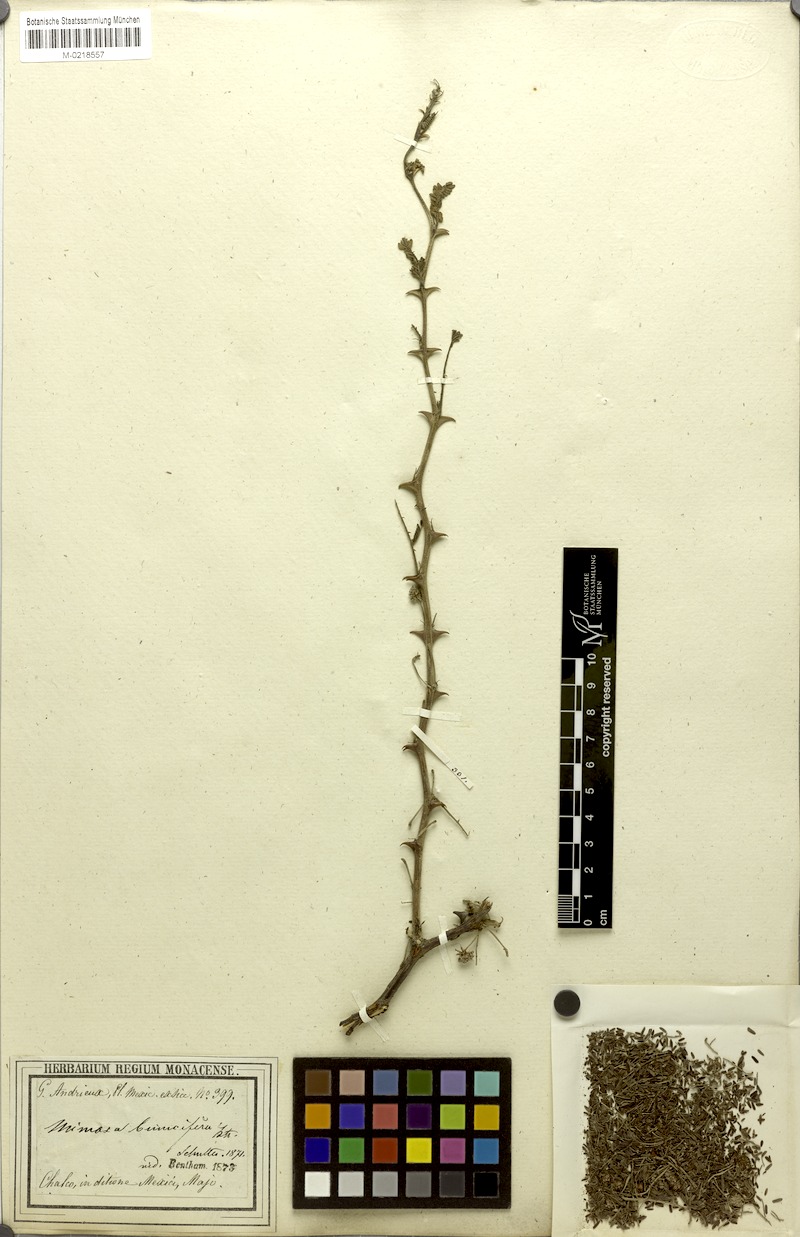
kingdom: Plantae
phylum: Tracheophyta
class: Magnoliopsida
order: Fabales
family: Fabaceae
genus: Mimosa
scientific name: Mimosa aculeaticarpa
